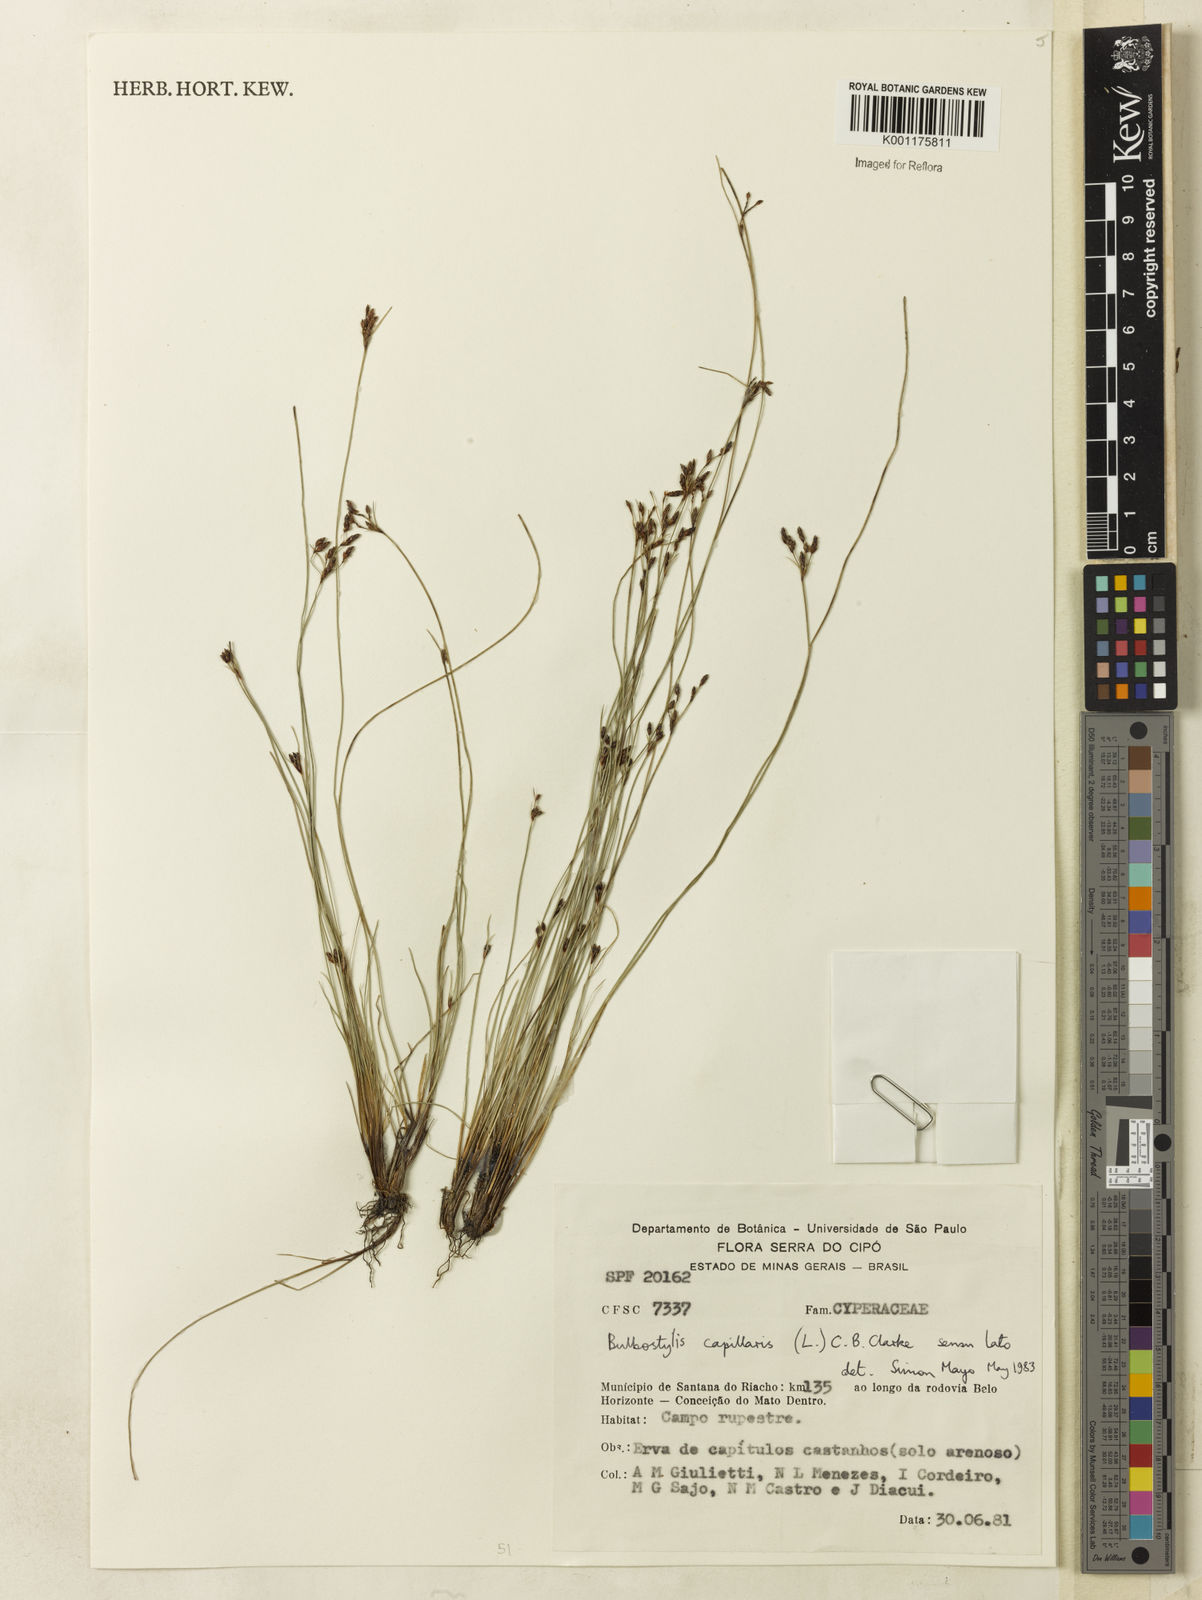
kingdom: Plantae
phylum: Tracheophyta
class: Liliopsida
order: Poales
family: Cyperaceae
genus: Bulbostylis
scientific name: Bulbostylis capillaris
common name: Densetuft hairsedge
